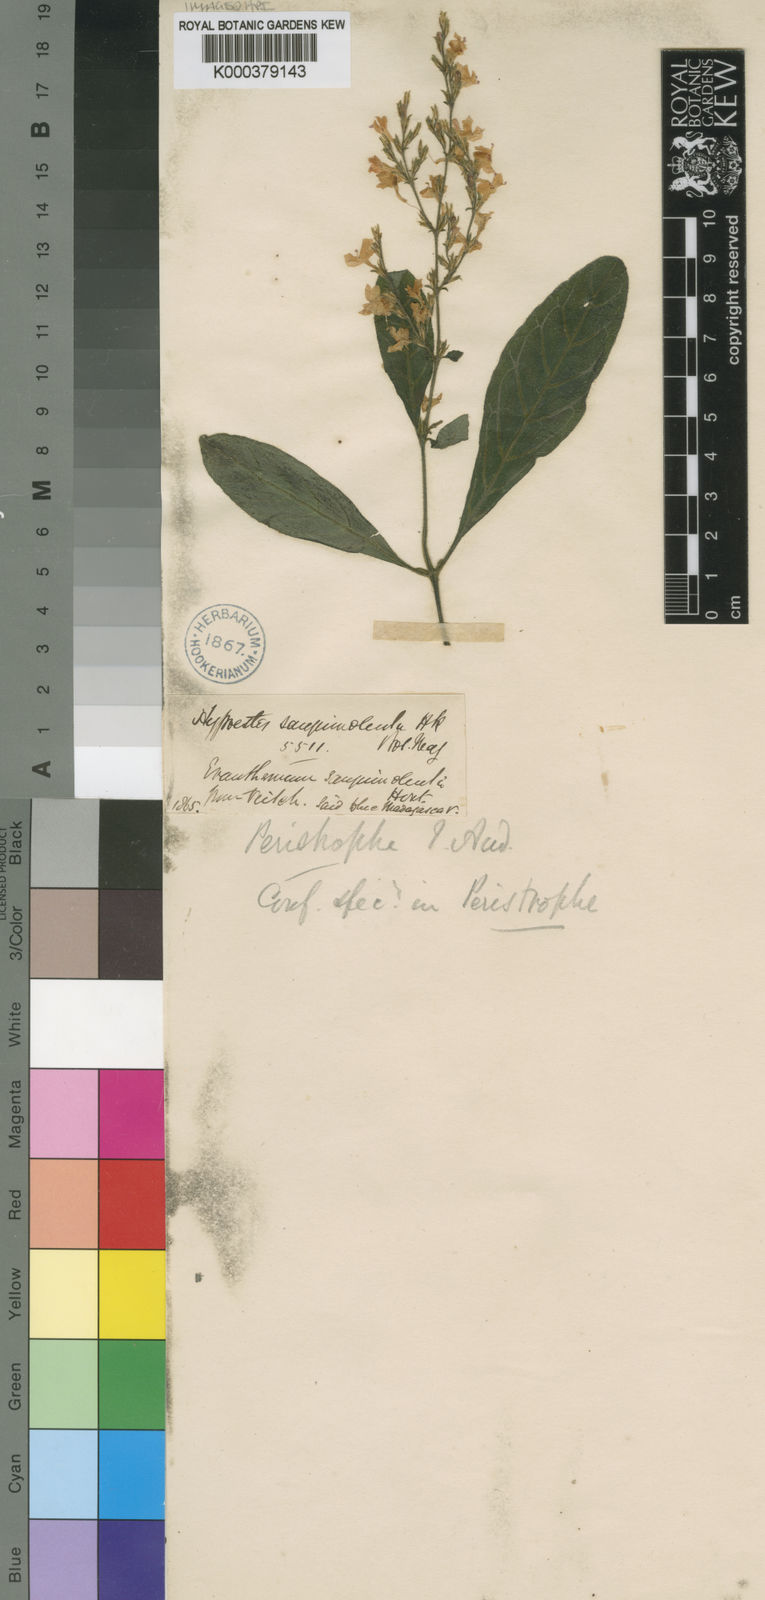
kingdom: Plantae
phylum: Tracheophyta
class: Magnoliopsida
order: Lamiales
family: Acanthaceae
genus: Hypoestes
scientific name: Hypoestes lasiostegia
